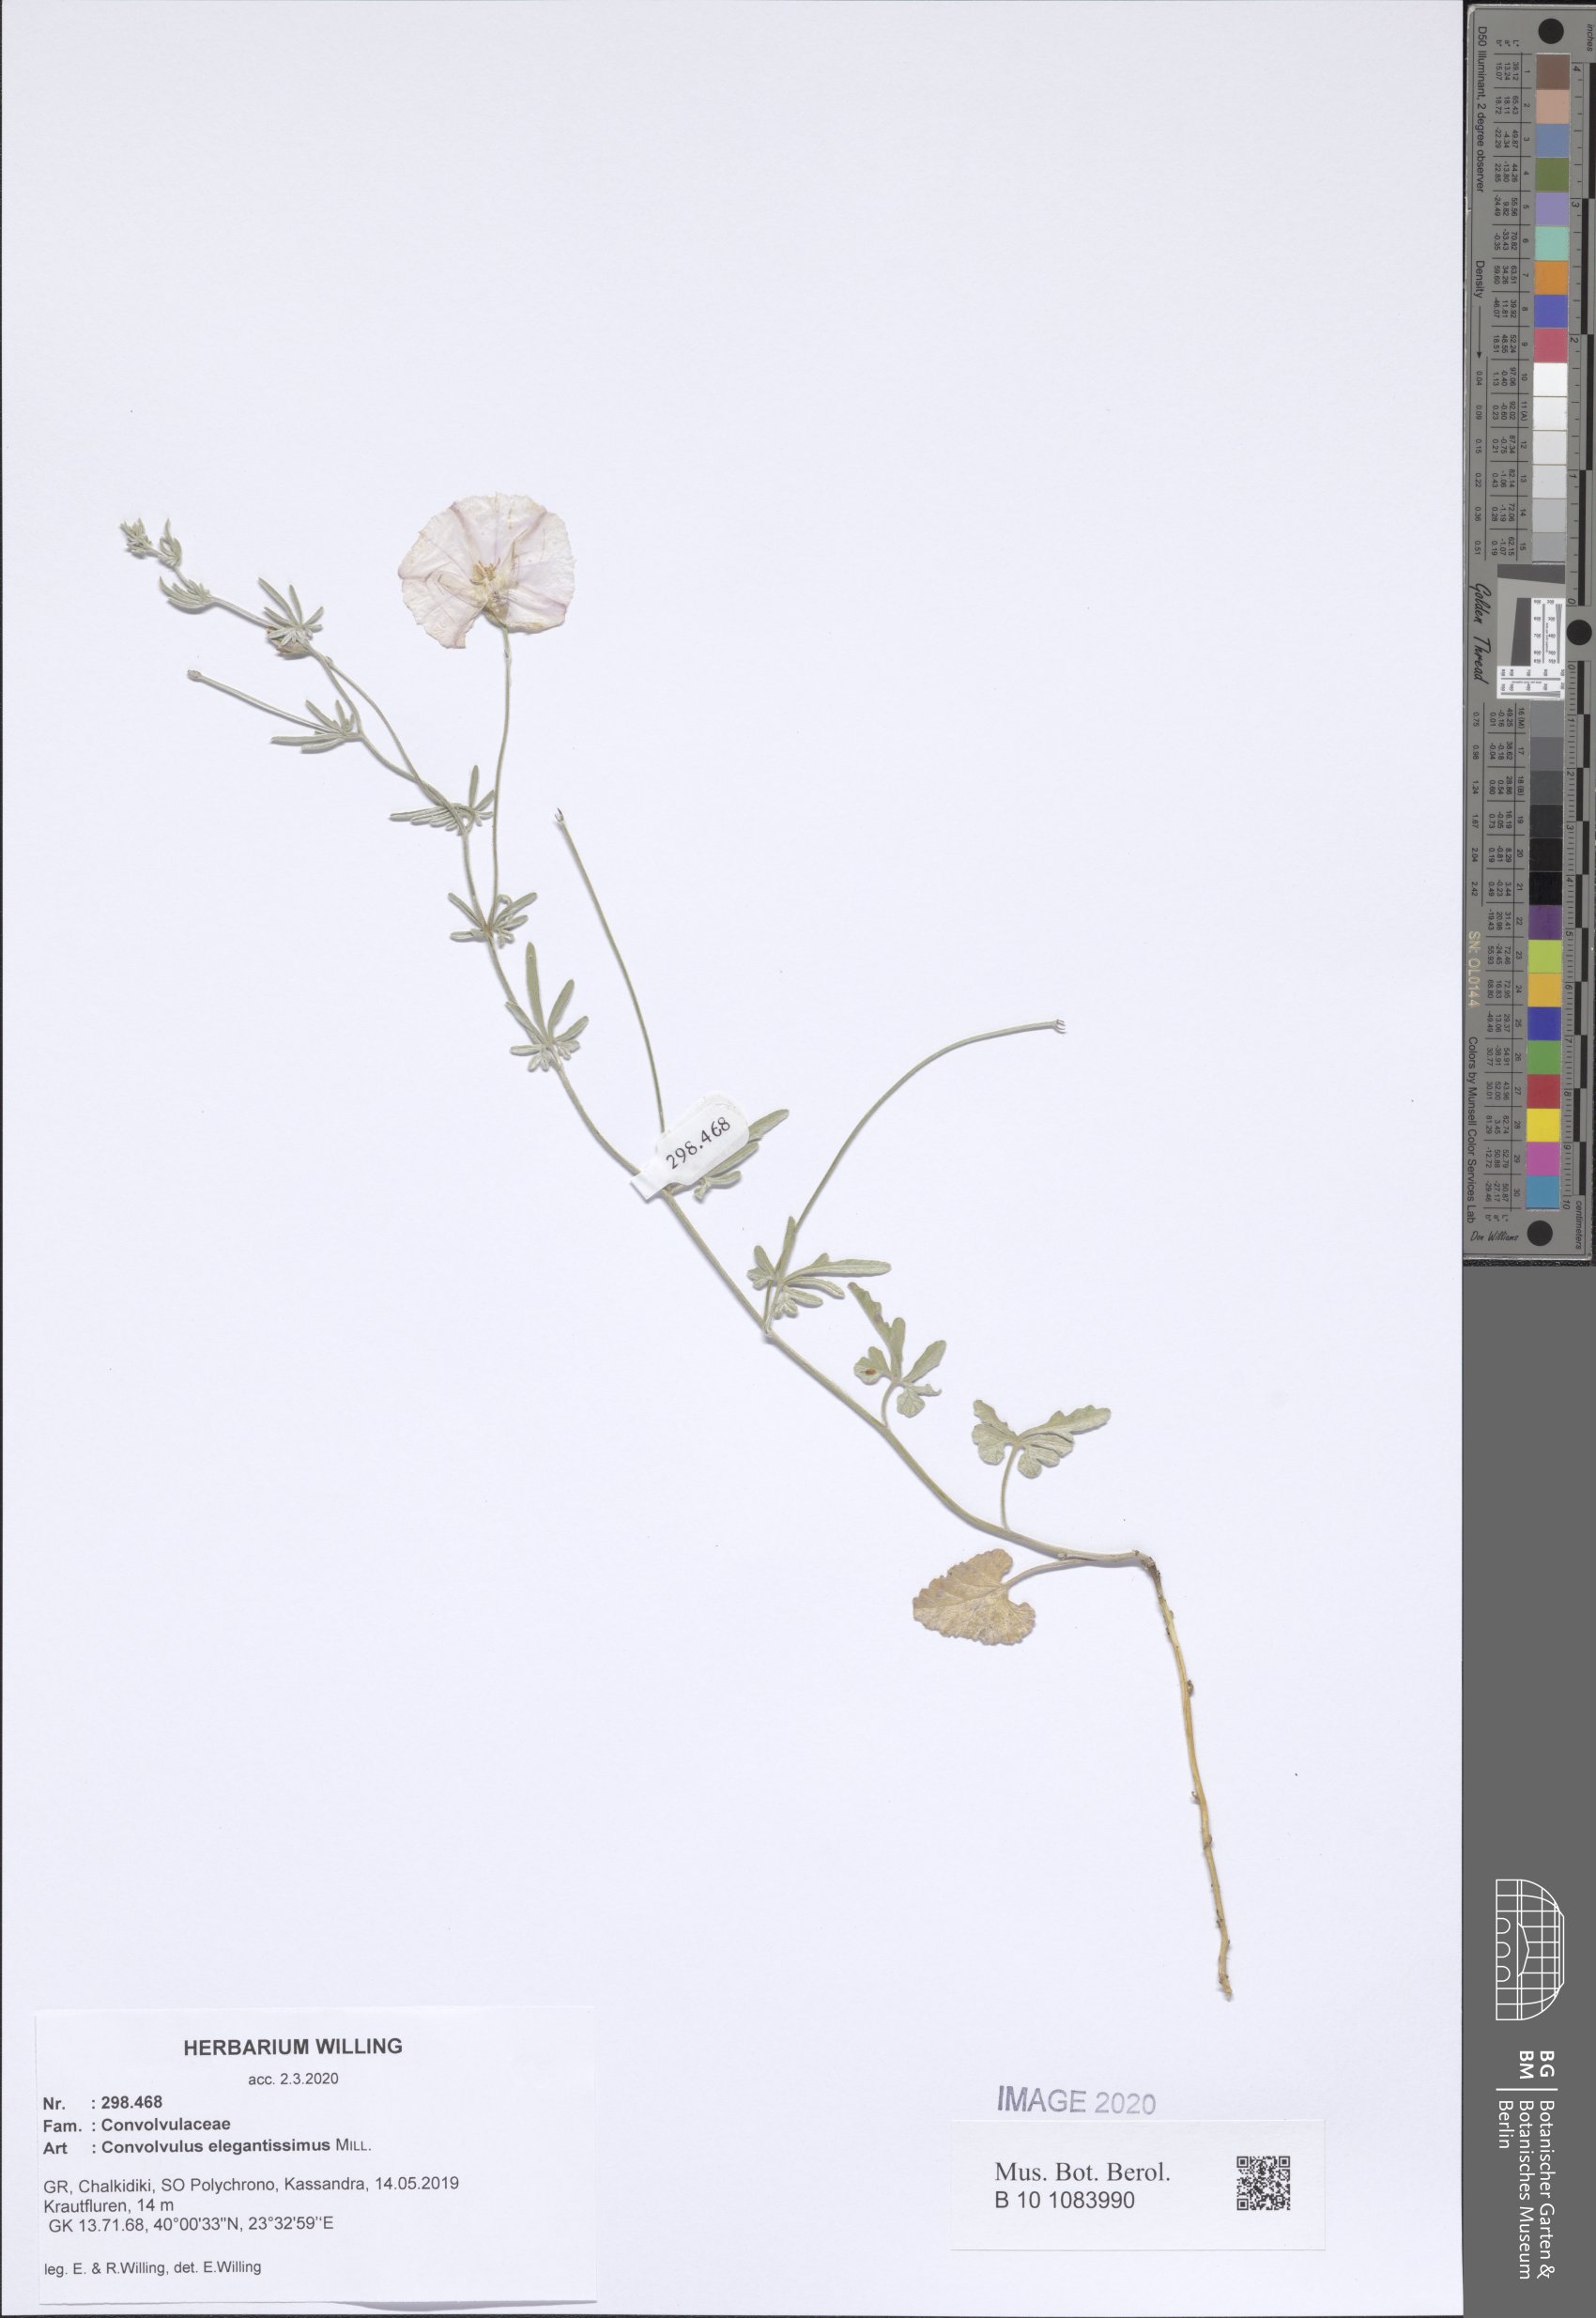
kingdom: Plantae
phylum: Tracheophyta
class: Magnoliopsida
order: Solanales
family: Convolvulaceae
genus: Convolvulus
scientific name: Convolvulus elegantissimus
